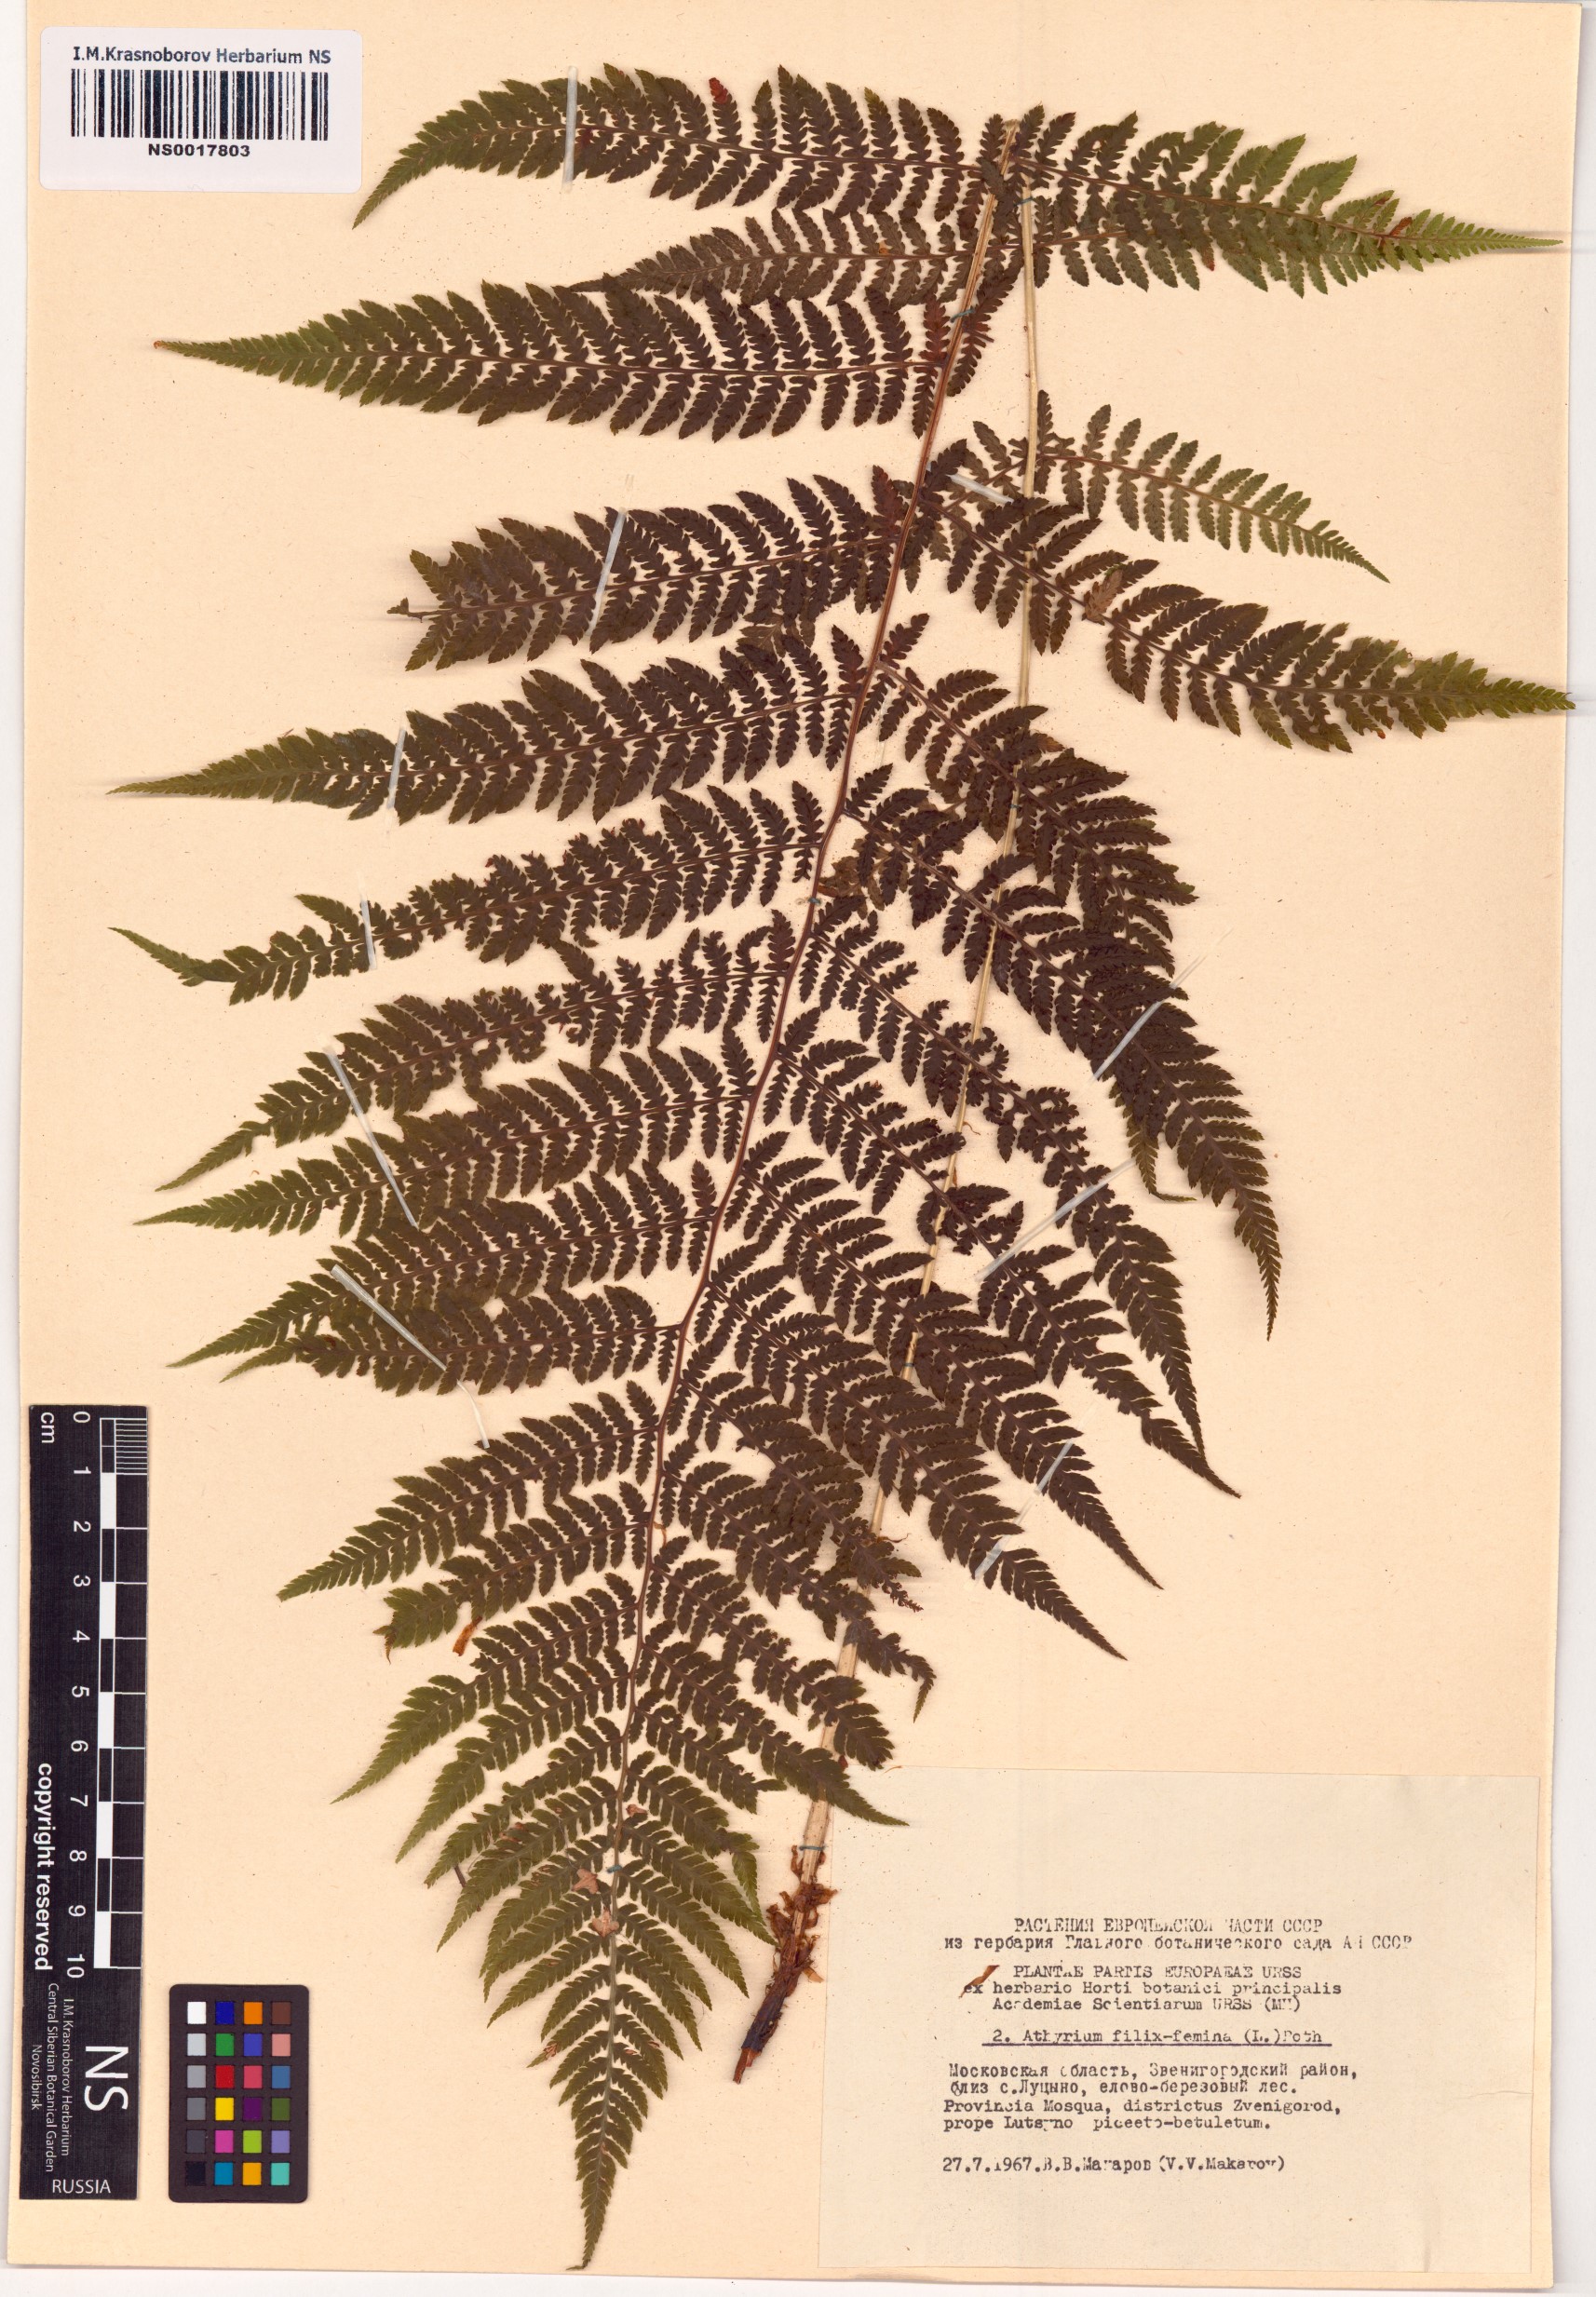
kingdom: Plantae
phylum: Tracheophyta
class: Polypodiopsida
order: Polypodiales
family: Athyriaceae
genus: Athyrium
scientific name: Athyrium filix-femina
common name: Lady fern
